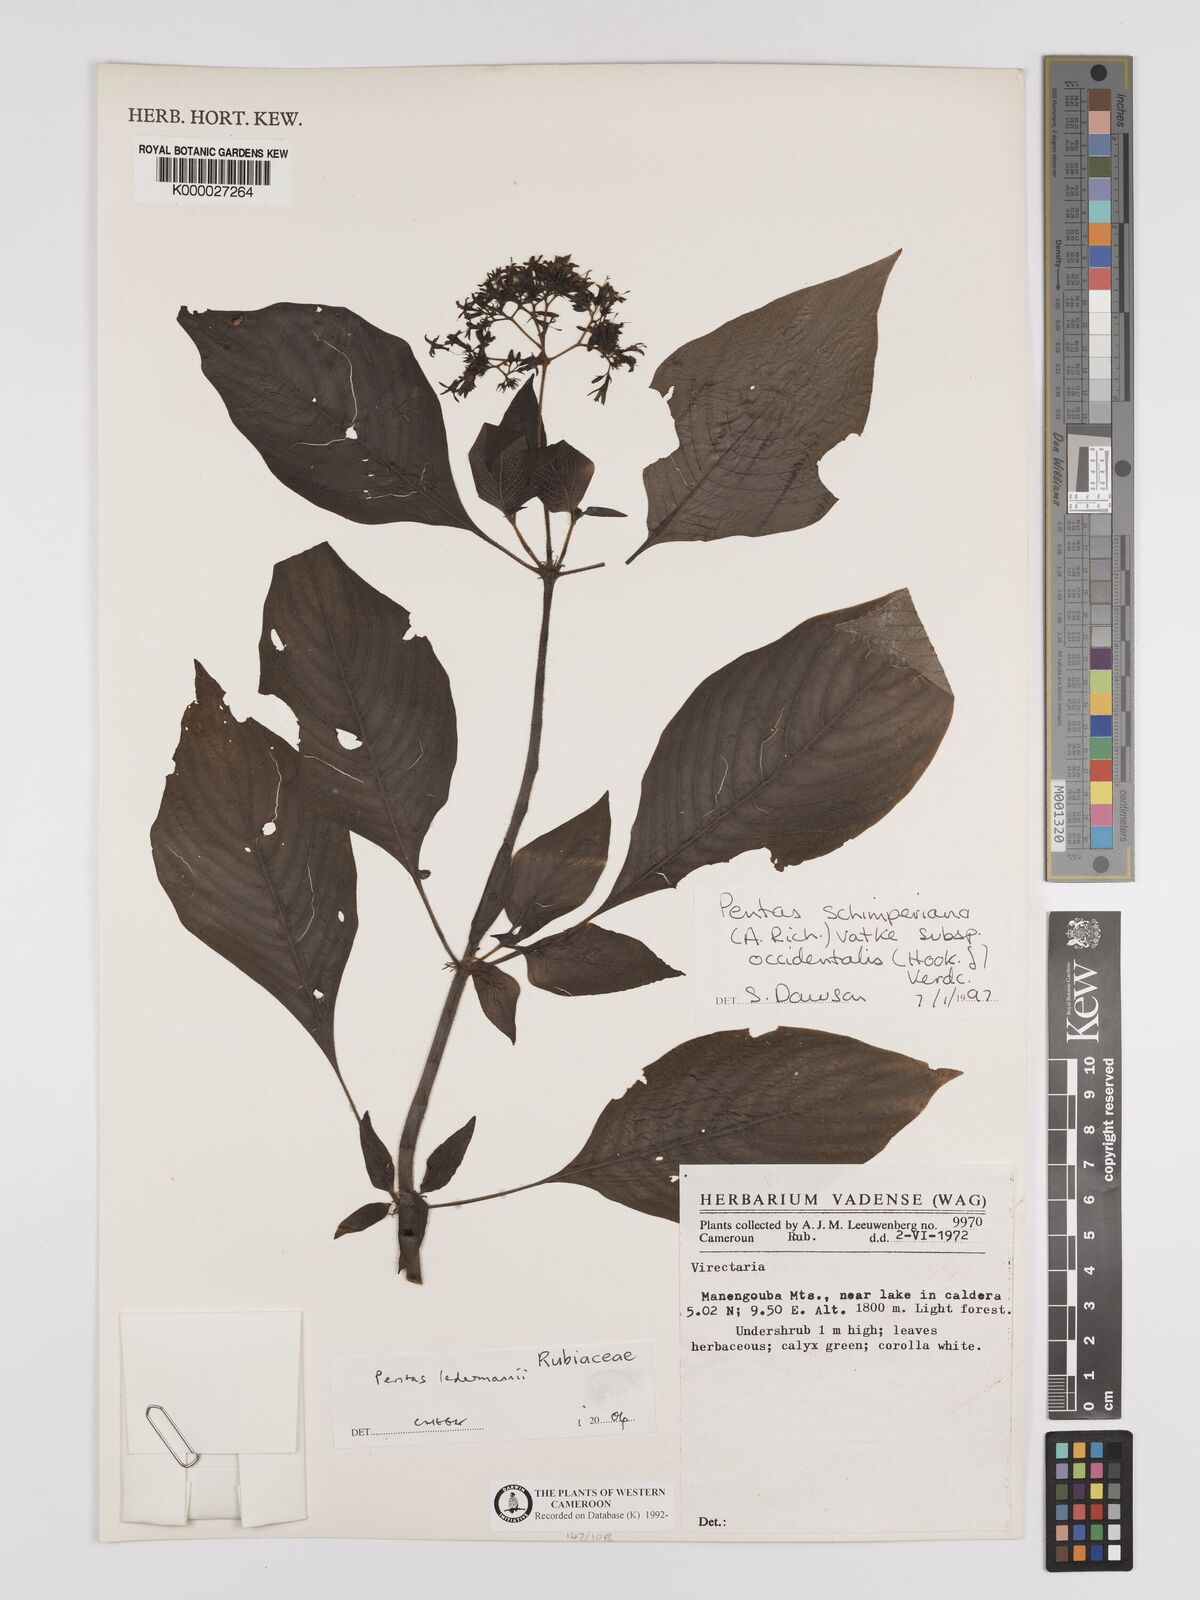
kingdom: Plantae
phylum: Tracheophyta
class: Magnoliopsida
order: Gentianales
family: Rubiaceae
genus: Phyllopentas
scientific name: Phyllopentas ledermannii
